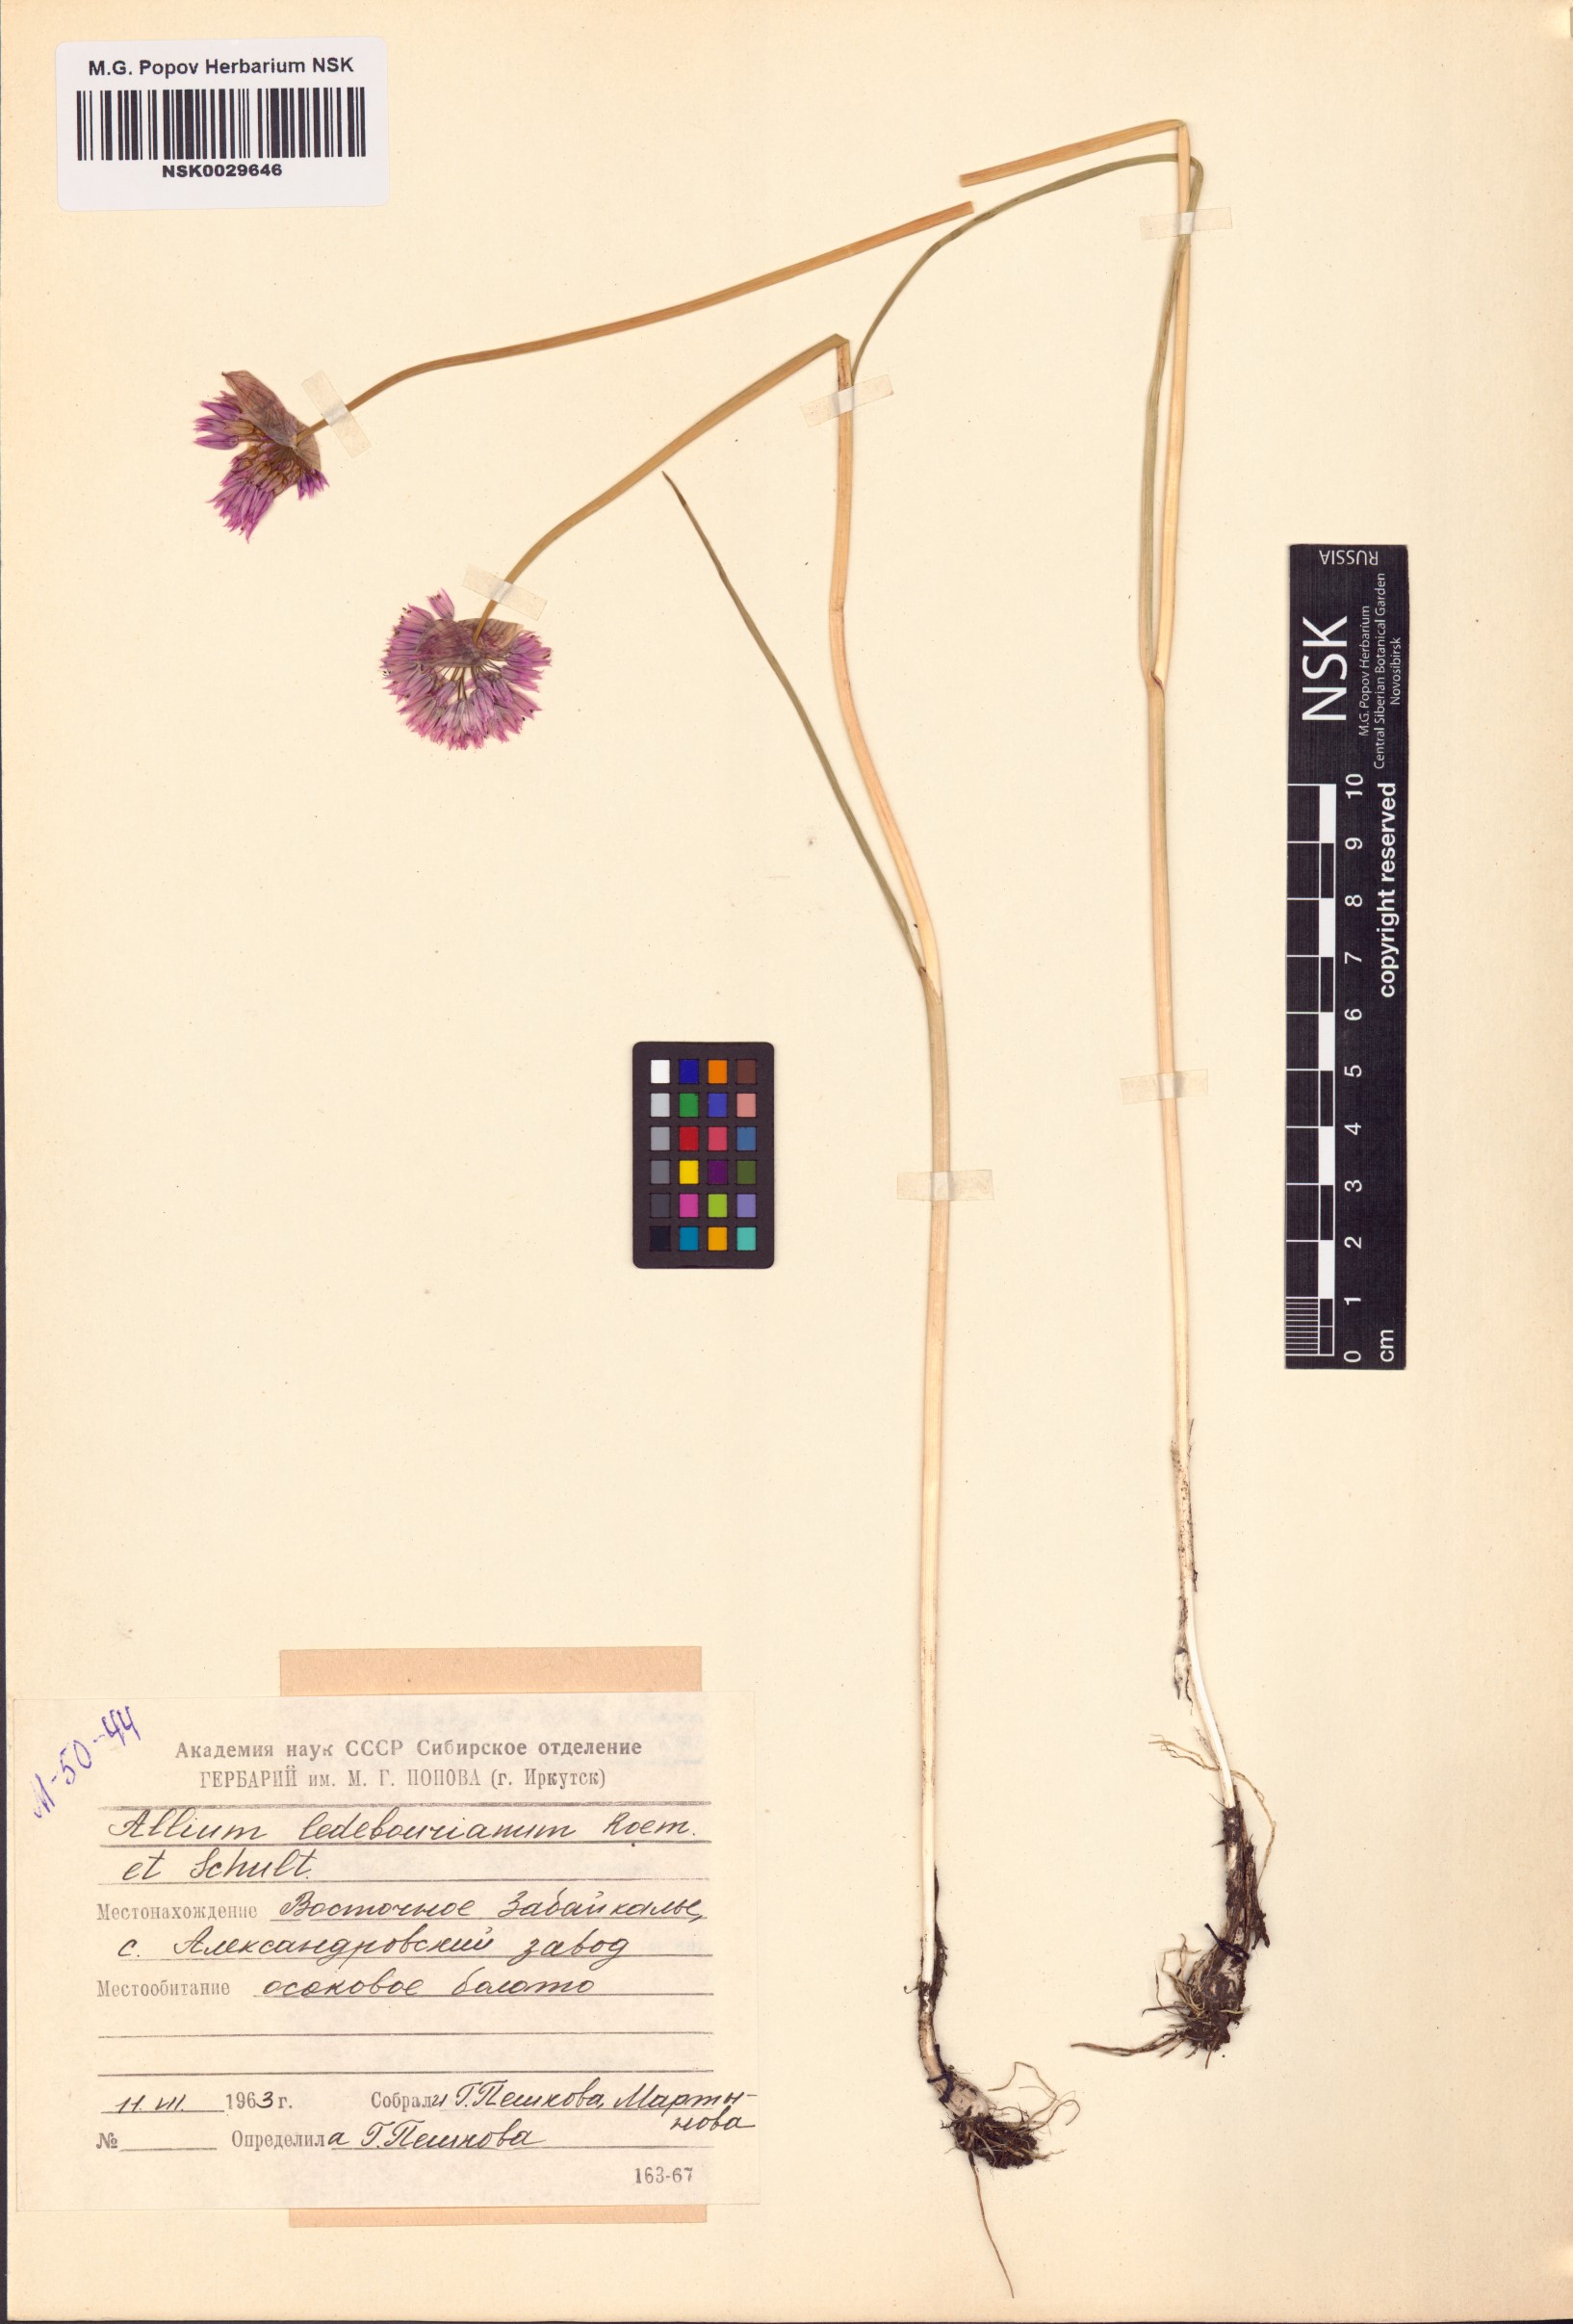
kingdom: Plantae
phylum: Tracheophyta
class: Liliopsida
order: Asparagales
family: Amaryllidaceae
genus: Allium
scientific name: Allium ledebourianum
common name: Ledebour chive
